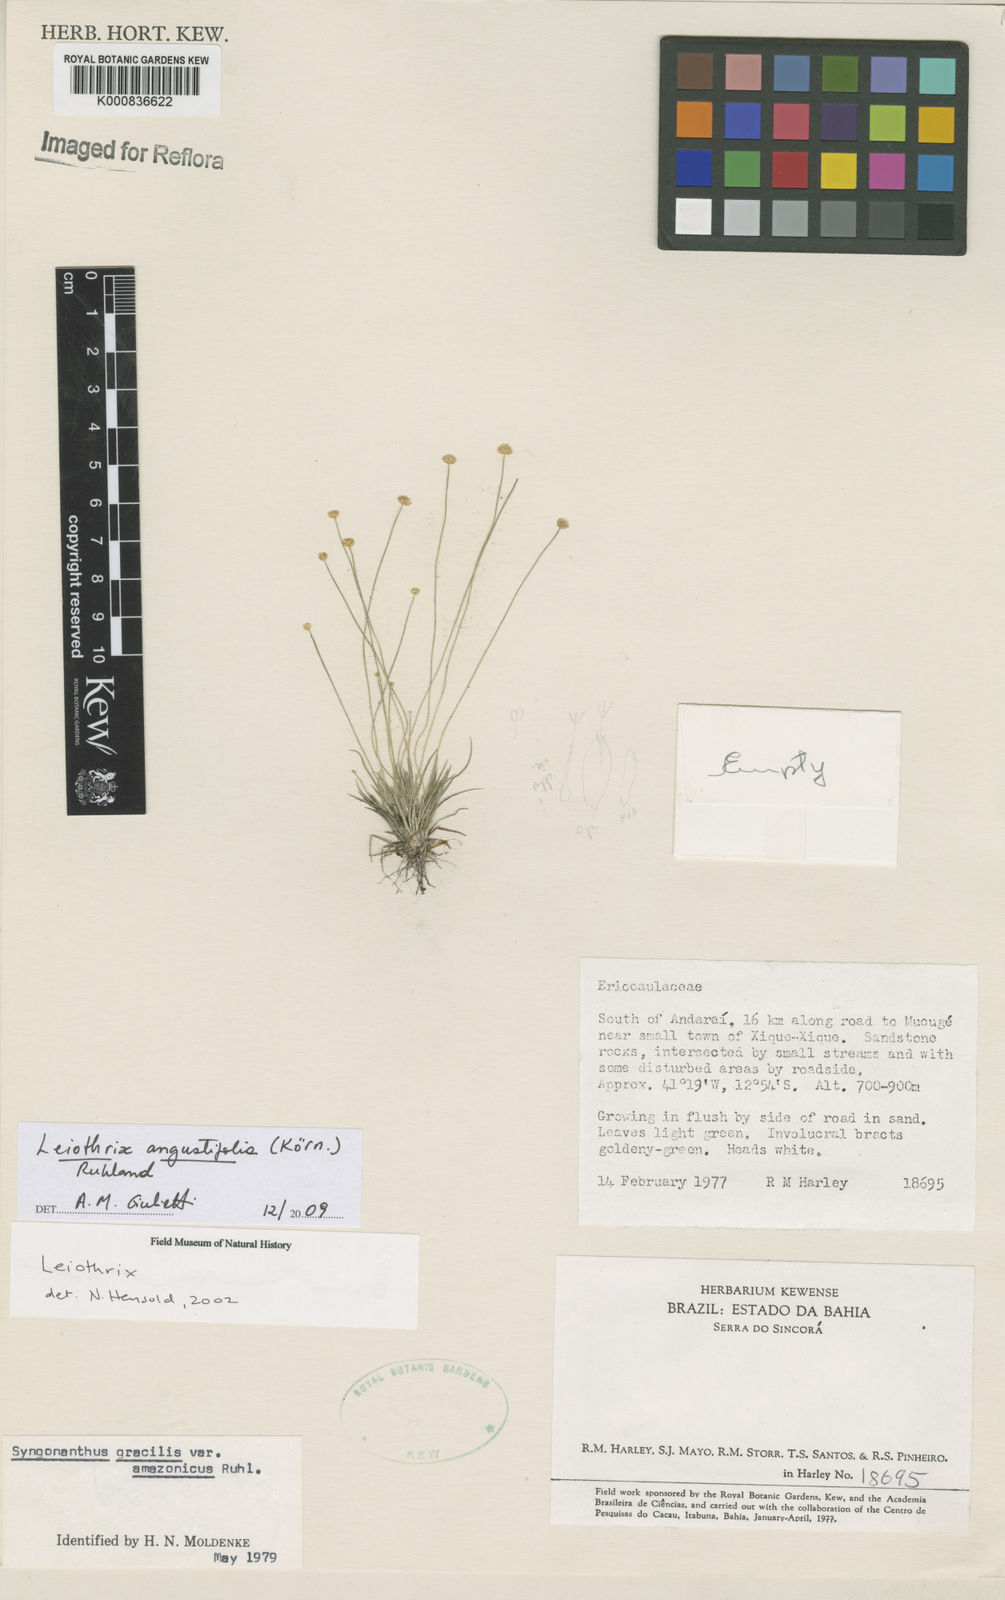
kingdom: Plantae
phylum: Tracheophyta
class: Liliopsida
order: Poales
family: Eriocaulaceae
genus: Leiothrix
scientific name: Leiothrix angustifolia
